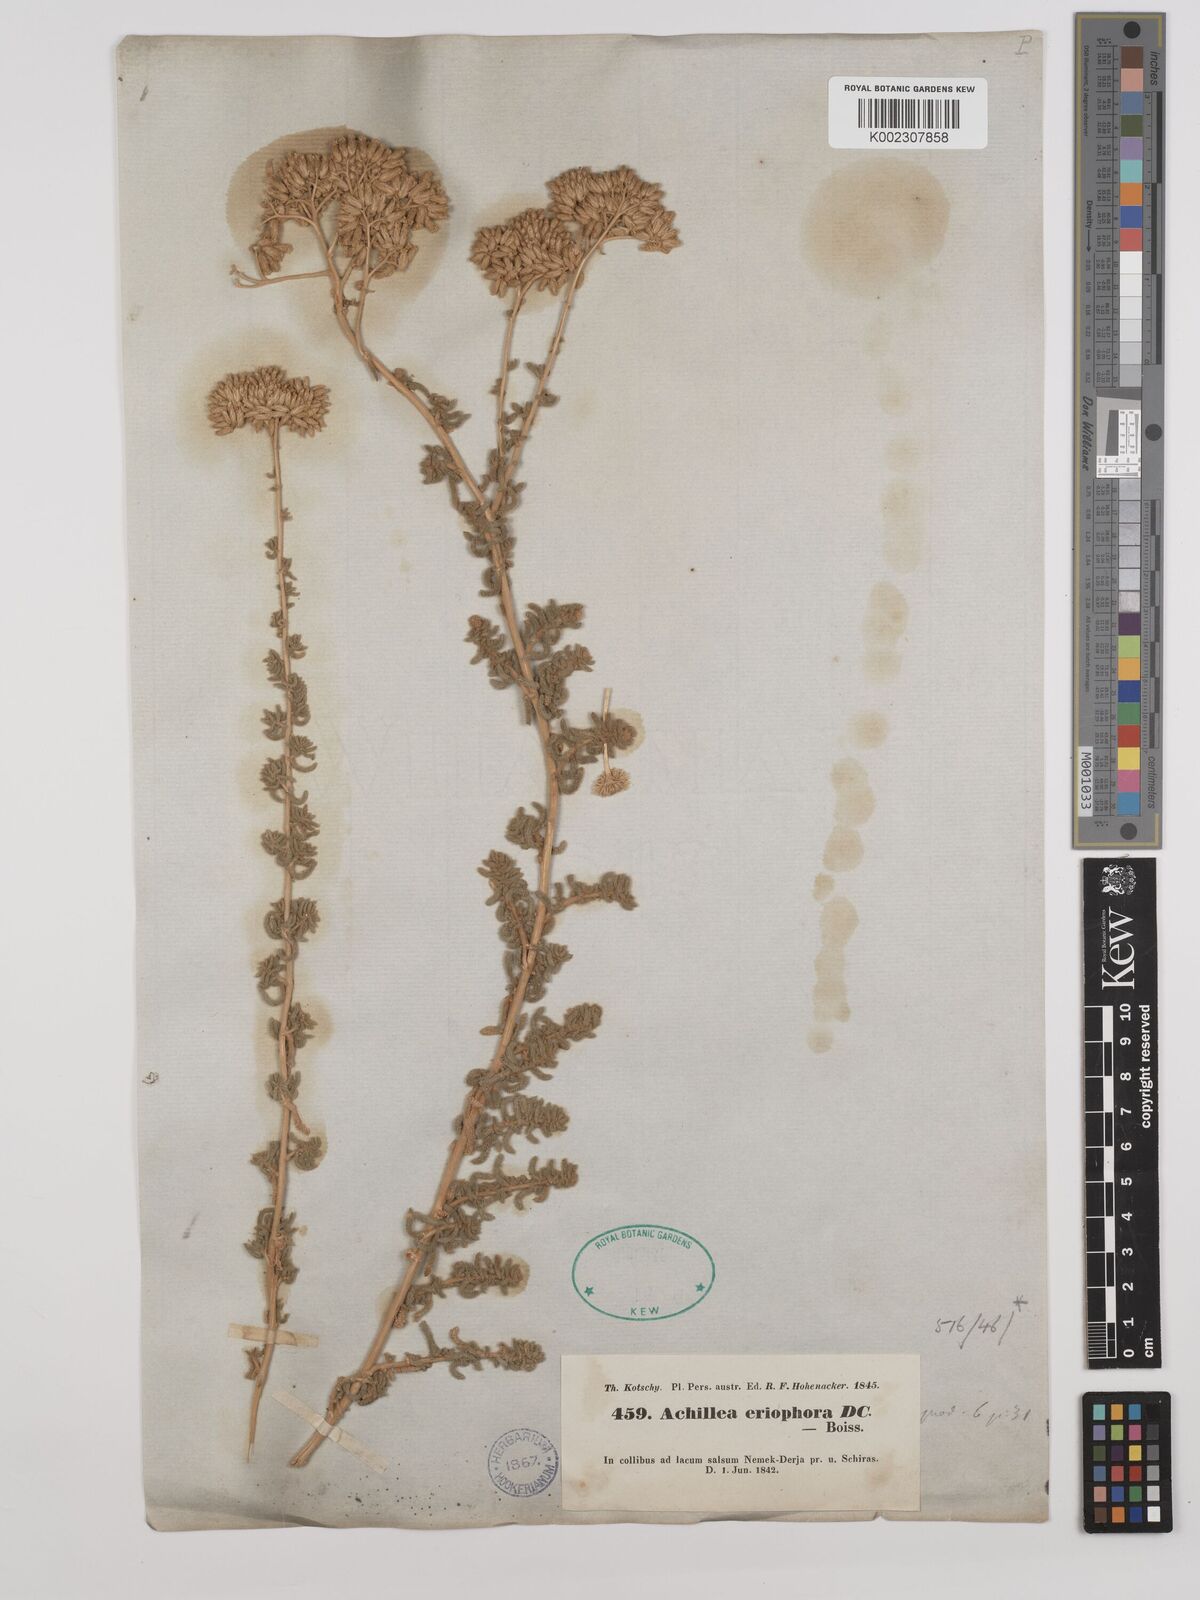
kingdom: Plantae
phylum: Tracheophyta
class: Magnoliopsida
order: Asterales
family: Asteraceae
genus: Achillea
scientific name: Achillea wilhelmsii
